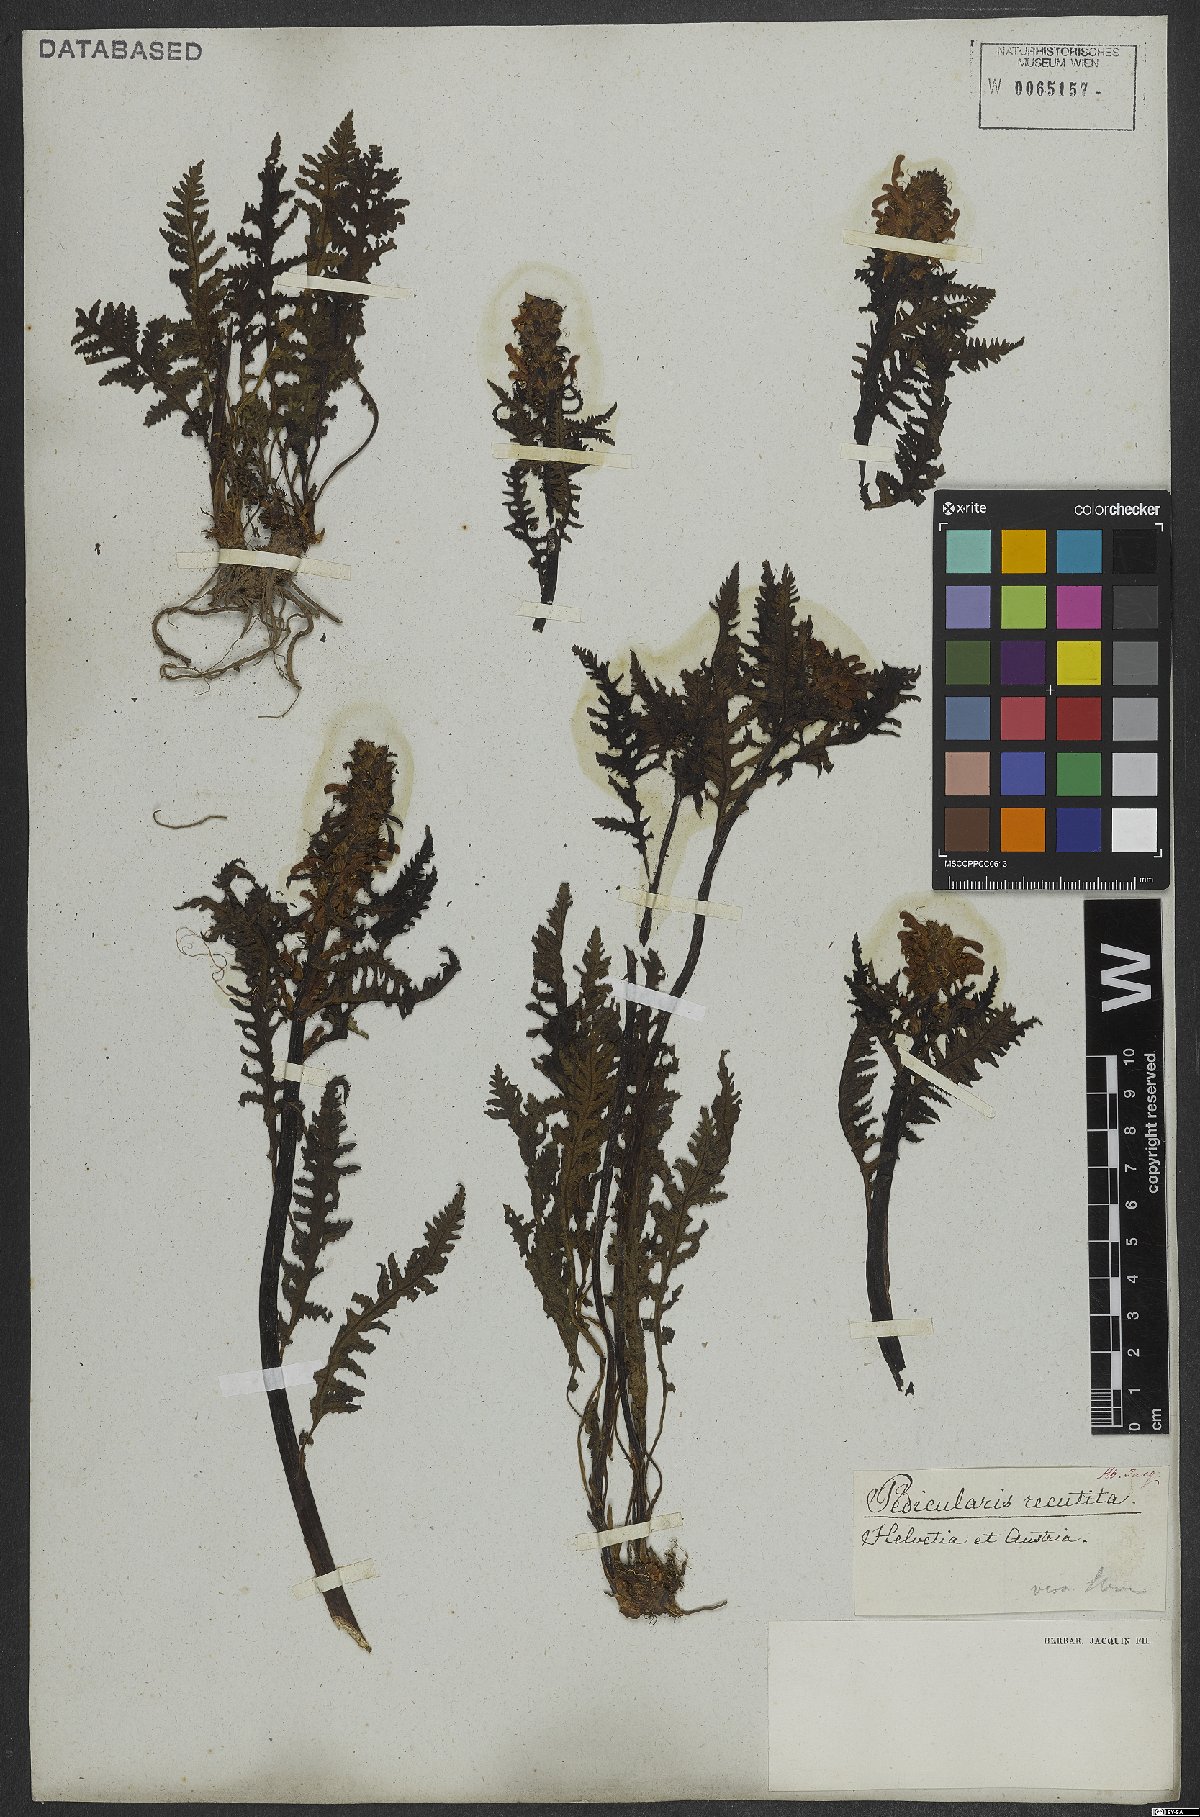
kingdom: Plantae
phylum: Tracheophyta
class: Magnoliopsida
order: Lamiales
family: Orobanchaceae
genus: Pedicularis
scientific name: Pedicularis recutita
